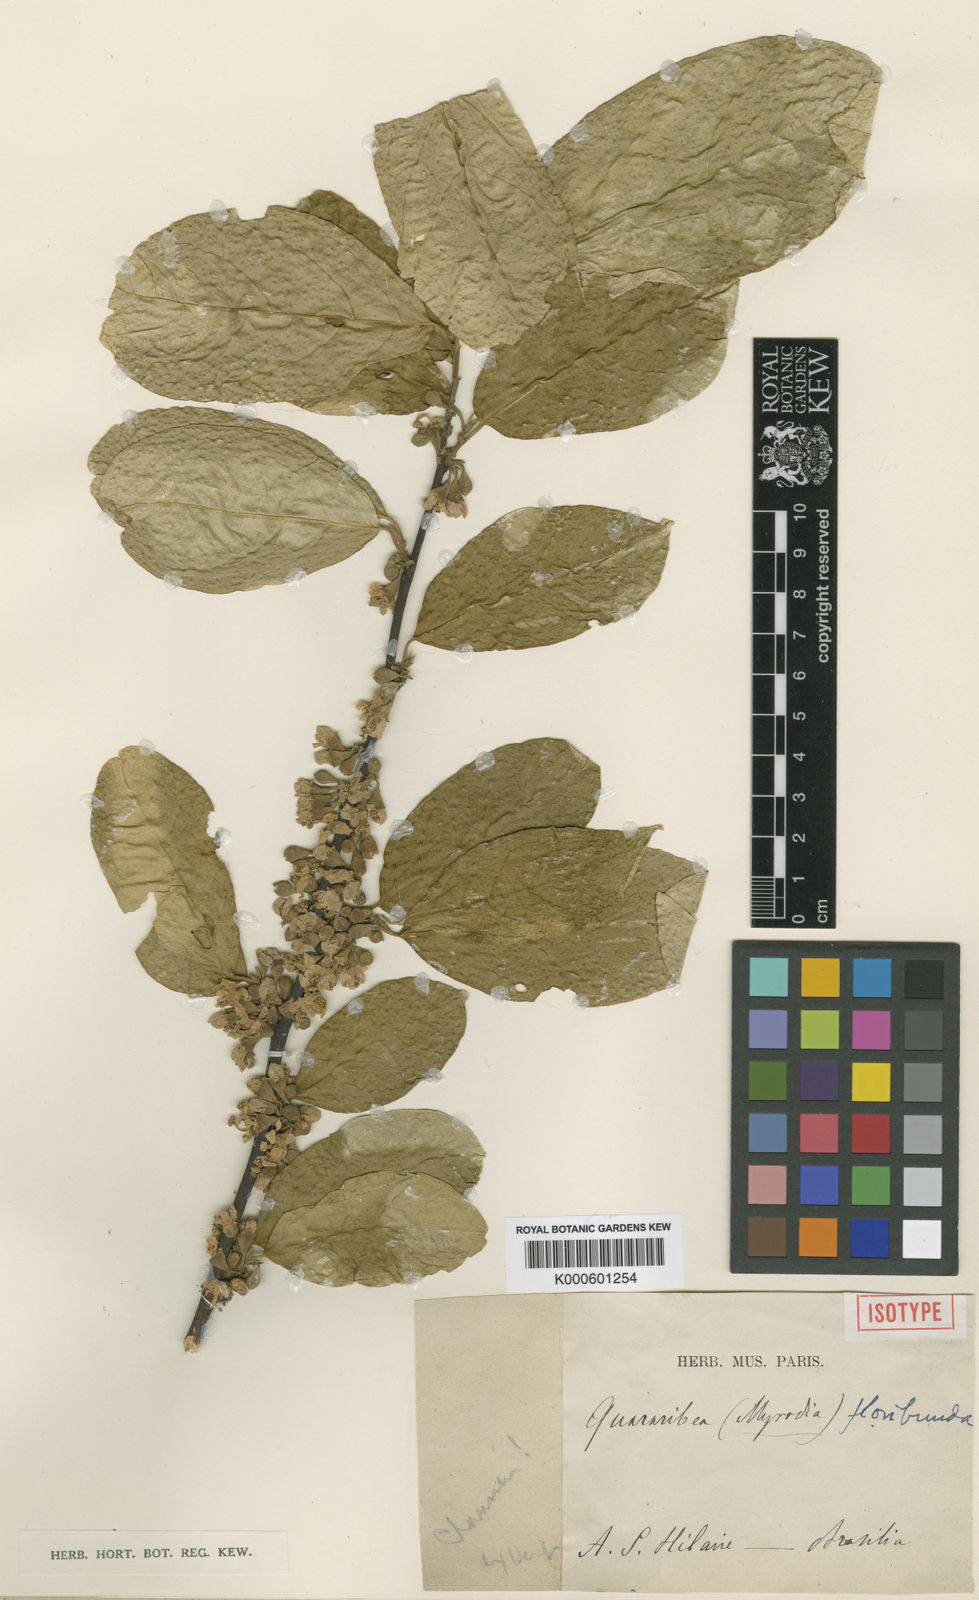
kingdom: Plantae
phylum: Tracheophyta
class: Magnoliopsida
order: Malvales
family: Malvaceae
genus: Quararibea
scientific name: Quararibea
